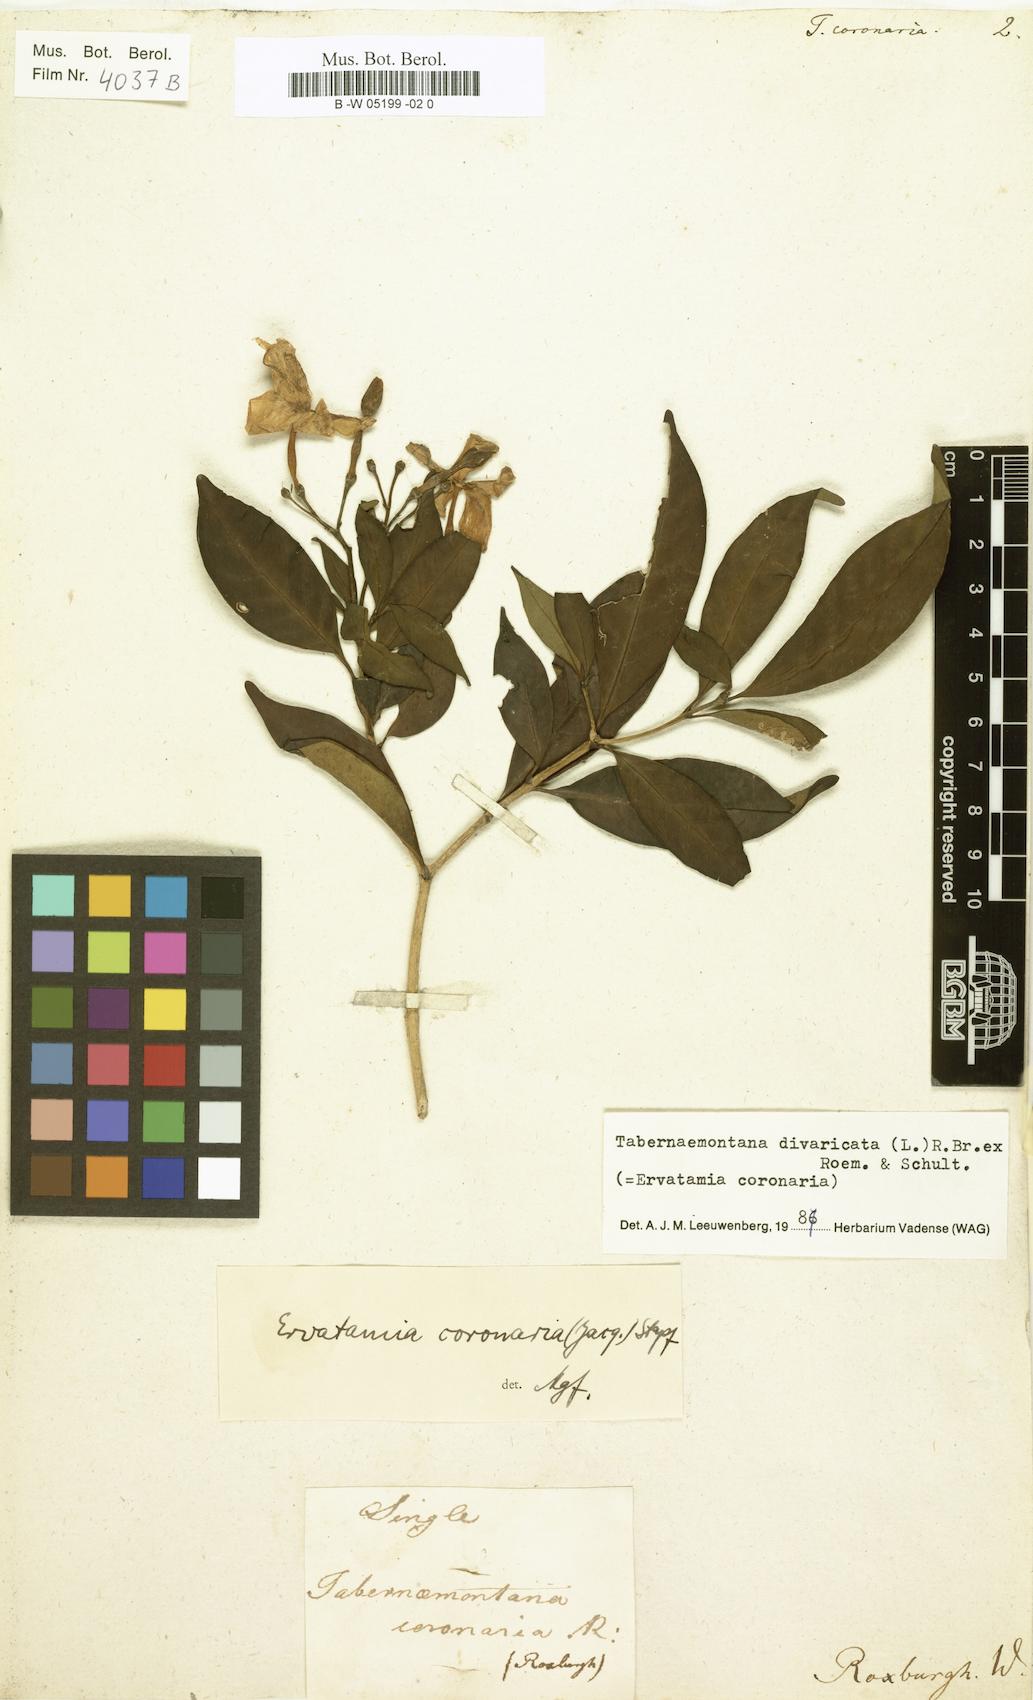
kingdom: Plantae
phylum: Tracheophyta
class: Magnoliopsida
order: Gentianales
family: Apocynaceae
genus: Tabernaemontana
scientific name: Tabernaemontana divaricata
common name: Pinwheelflower
